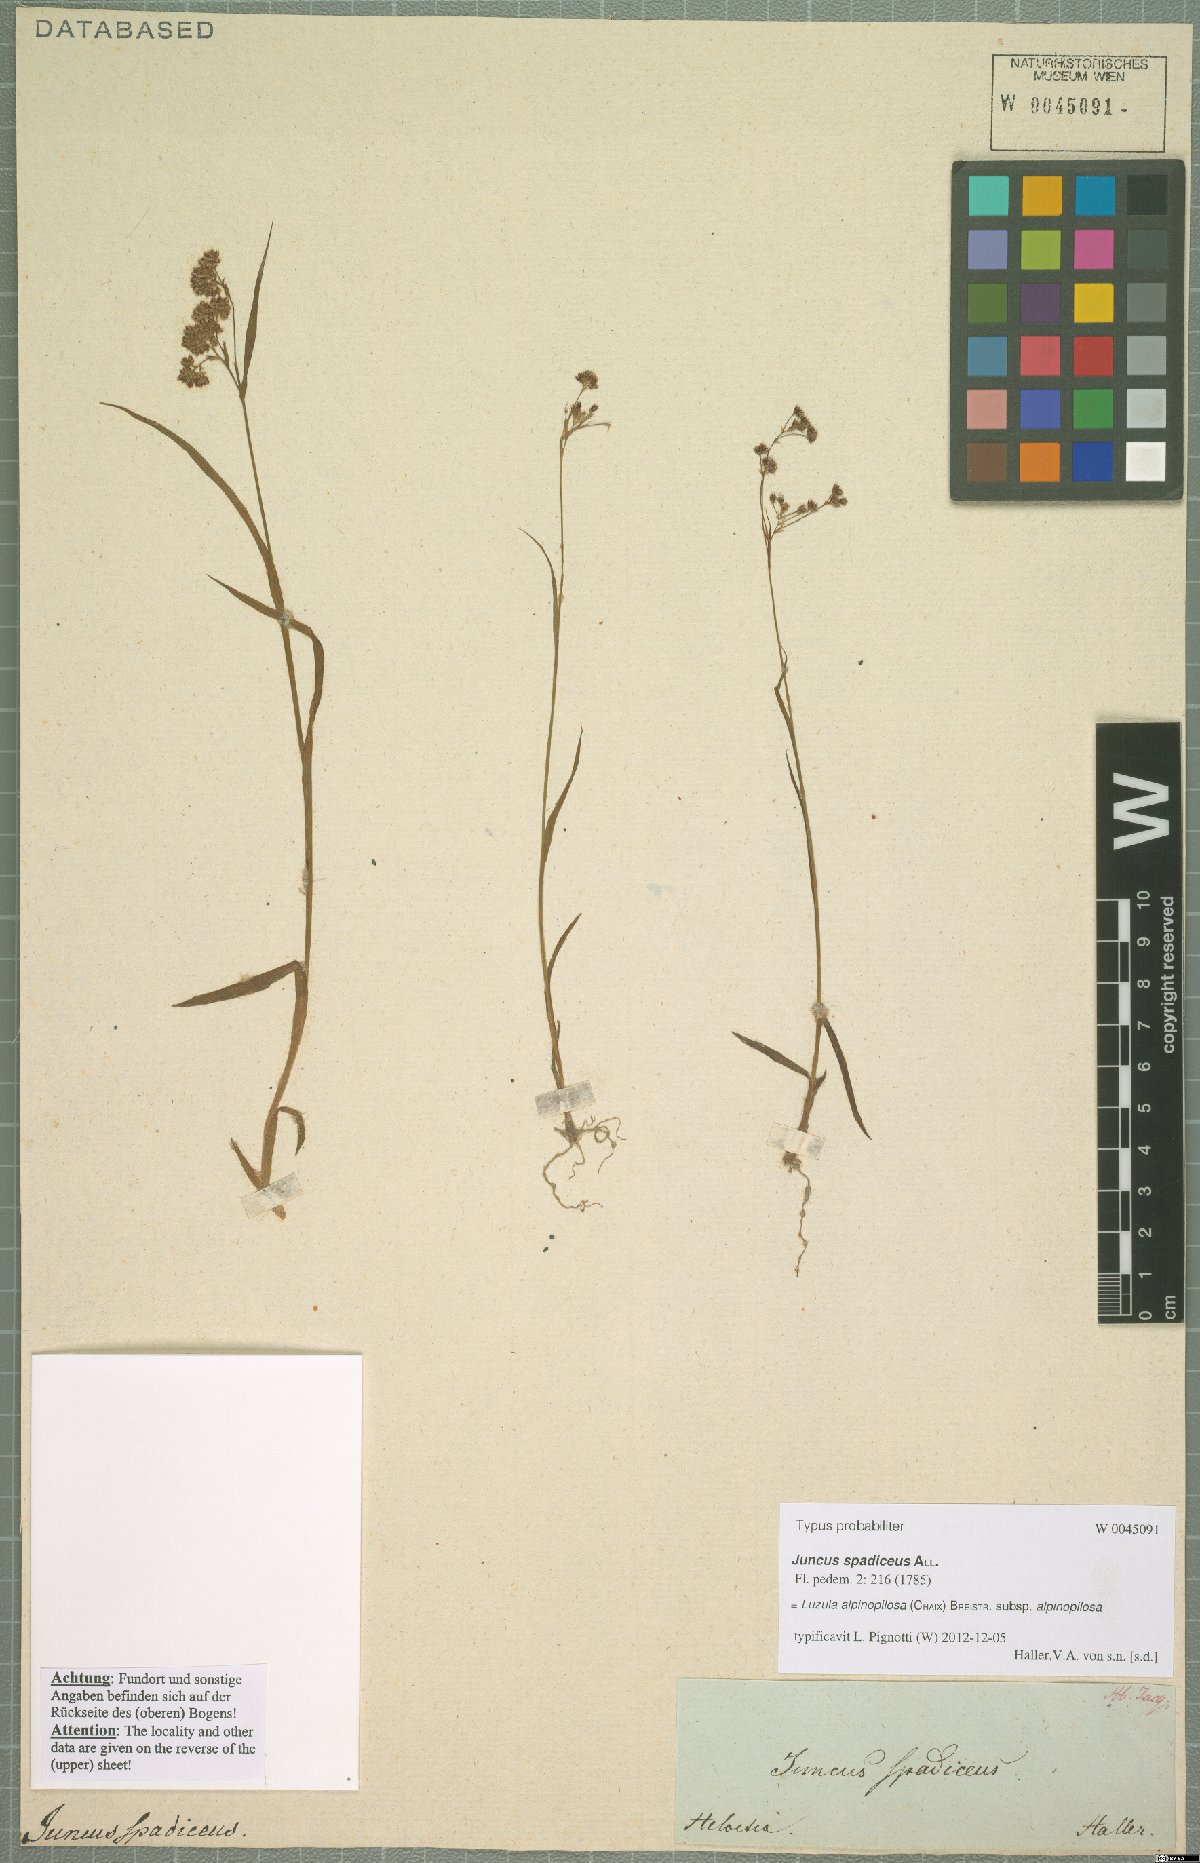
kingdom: Plantae
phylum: Tracheophyta
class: Liliopsida
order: Poales
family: Juncaceae
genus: Luzula
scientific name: Luzula alpinopilosa
